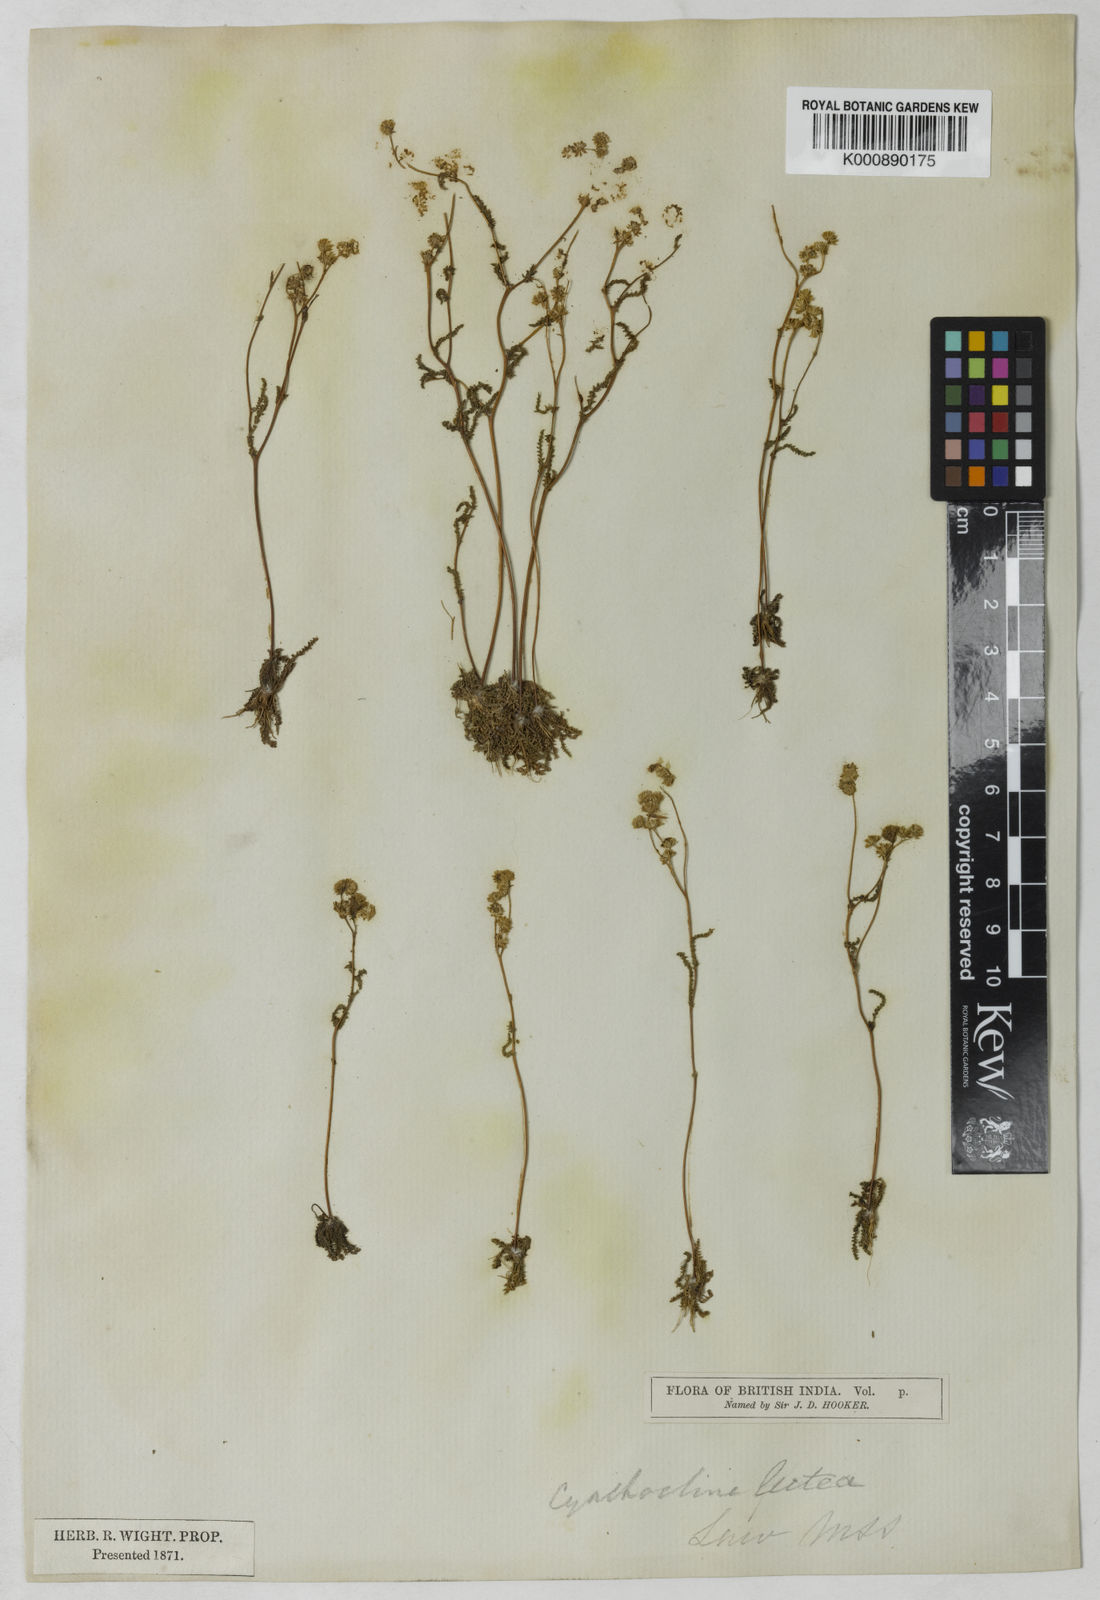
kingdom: Plantae
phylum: Tracheophyta
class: Magnoliopsida
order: Asterales
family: Asteraceae
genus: Cyathocline
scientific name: Cyathocline lutea
